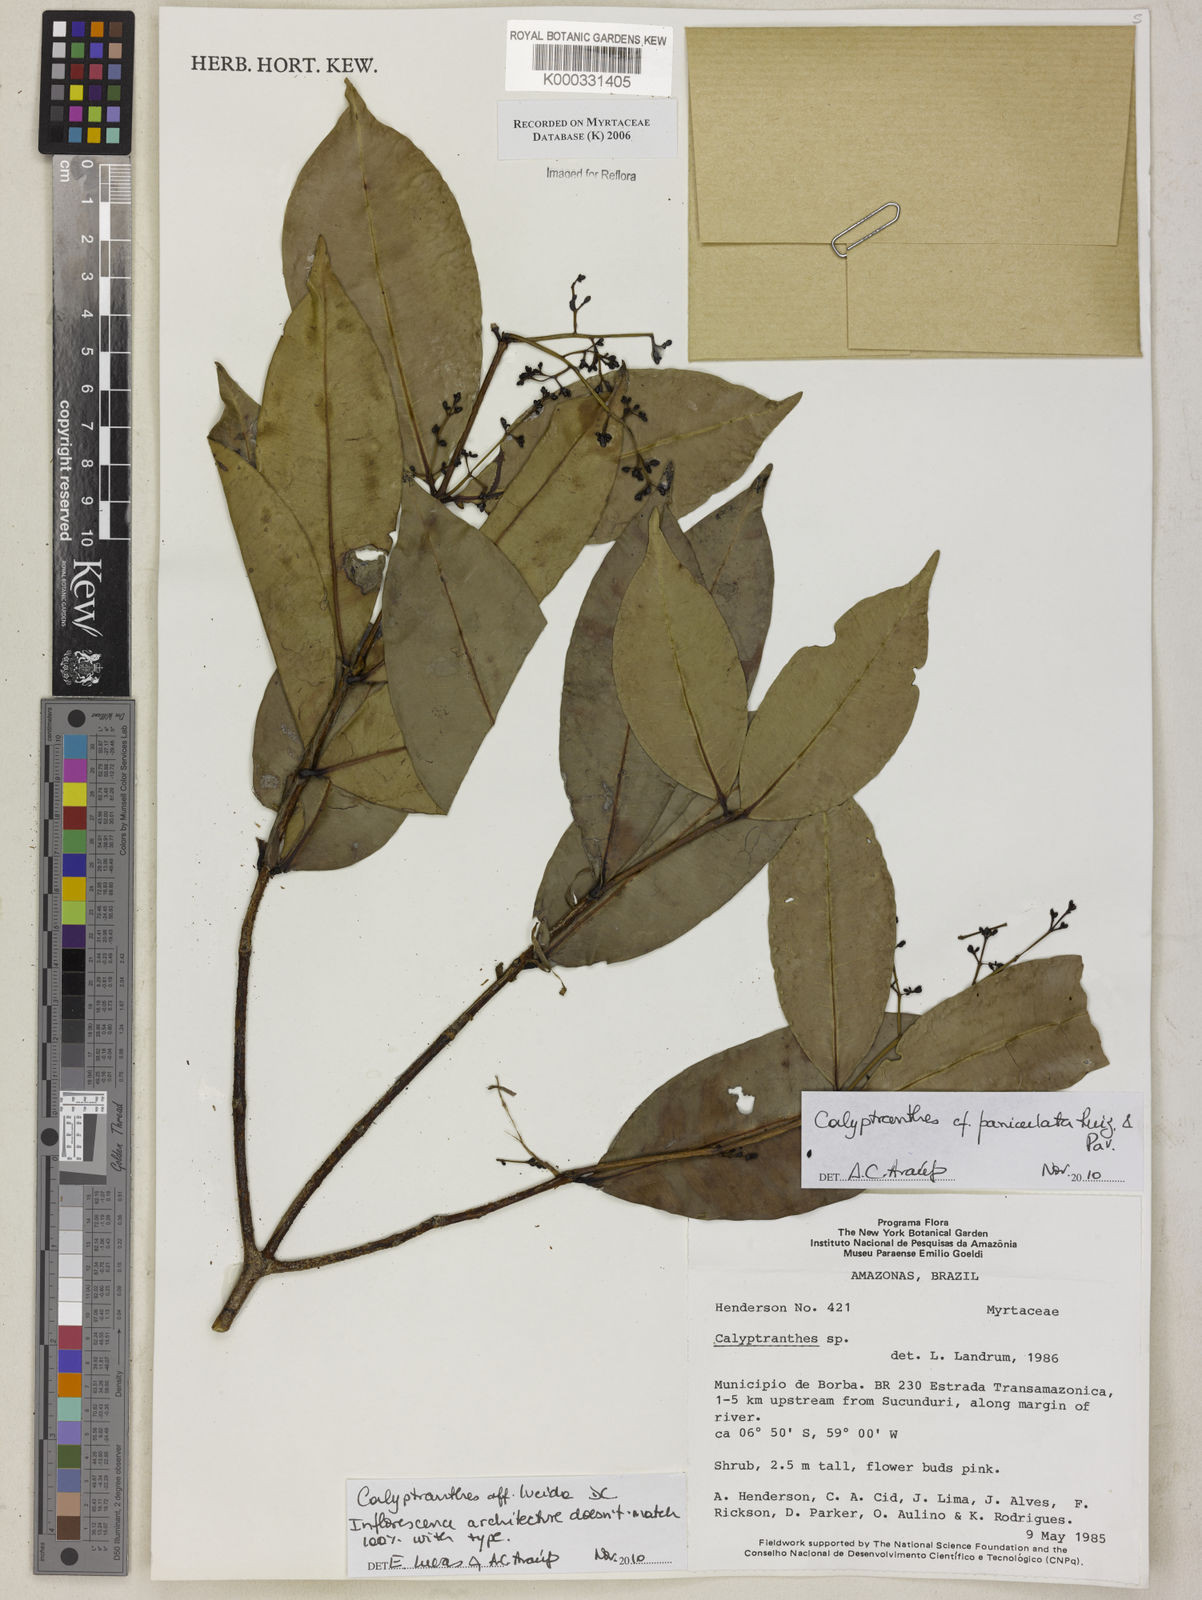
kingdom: Plantae
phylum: Tracheophyta
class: Magnoliopsida
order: Myrtales
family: Myrtaceae
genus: Calyptranthes
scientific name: Calyptranthes
